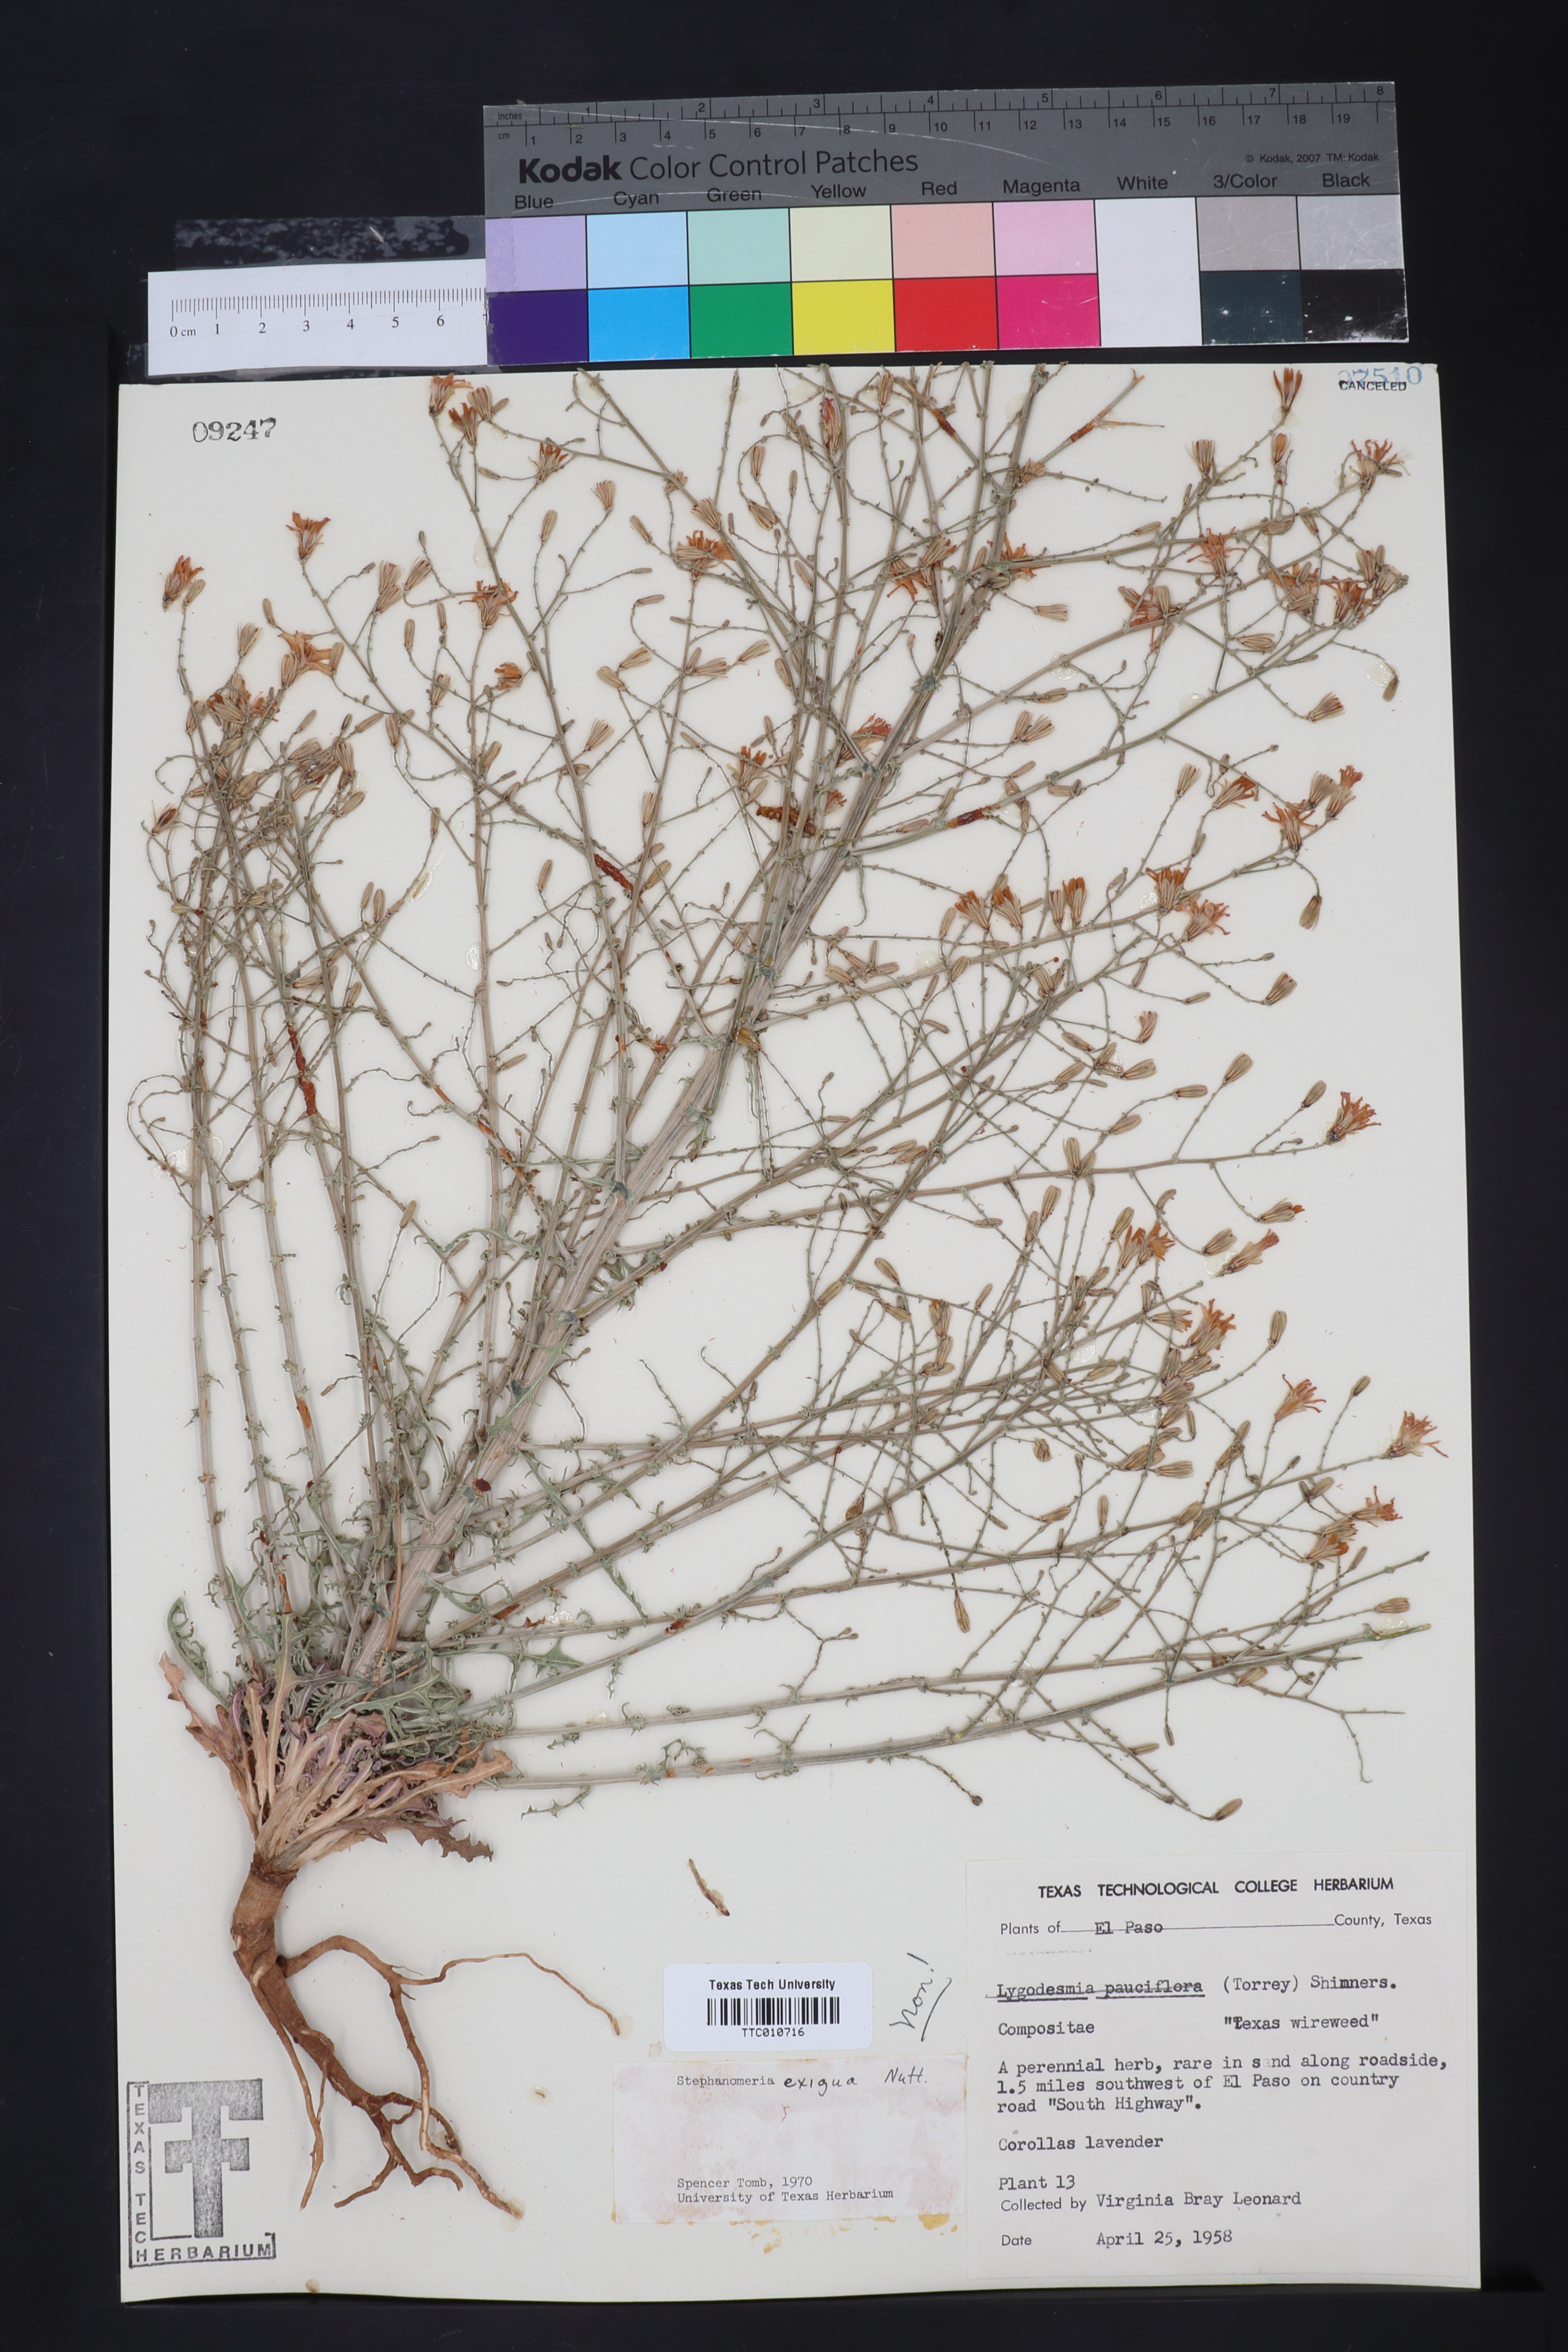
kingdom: Plantae
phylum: Tracheophyta
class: Magnoliopsida
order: Asterales
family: Asteraceae
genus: Stephanomeria
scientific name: Stephanomeria exigua
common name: Small wirelettuce
